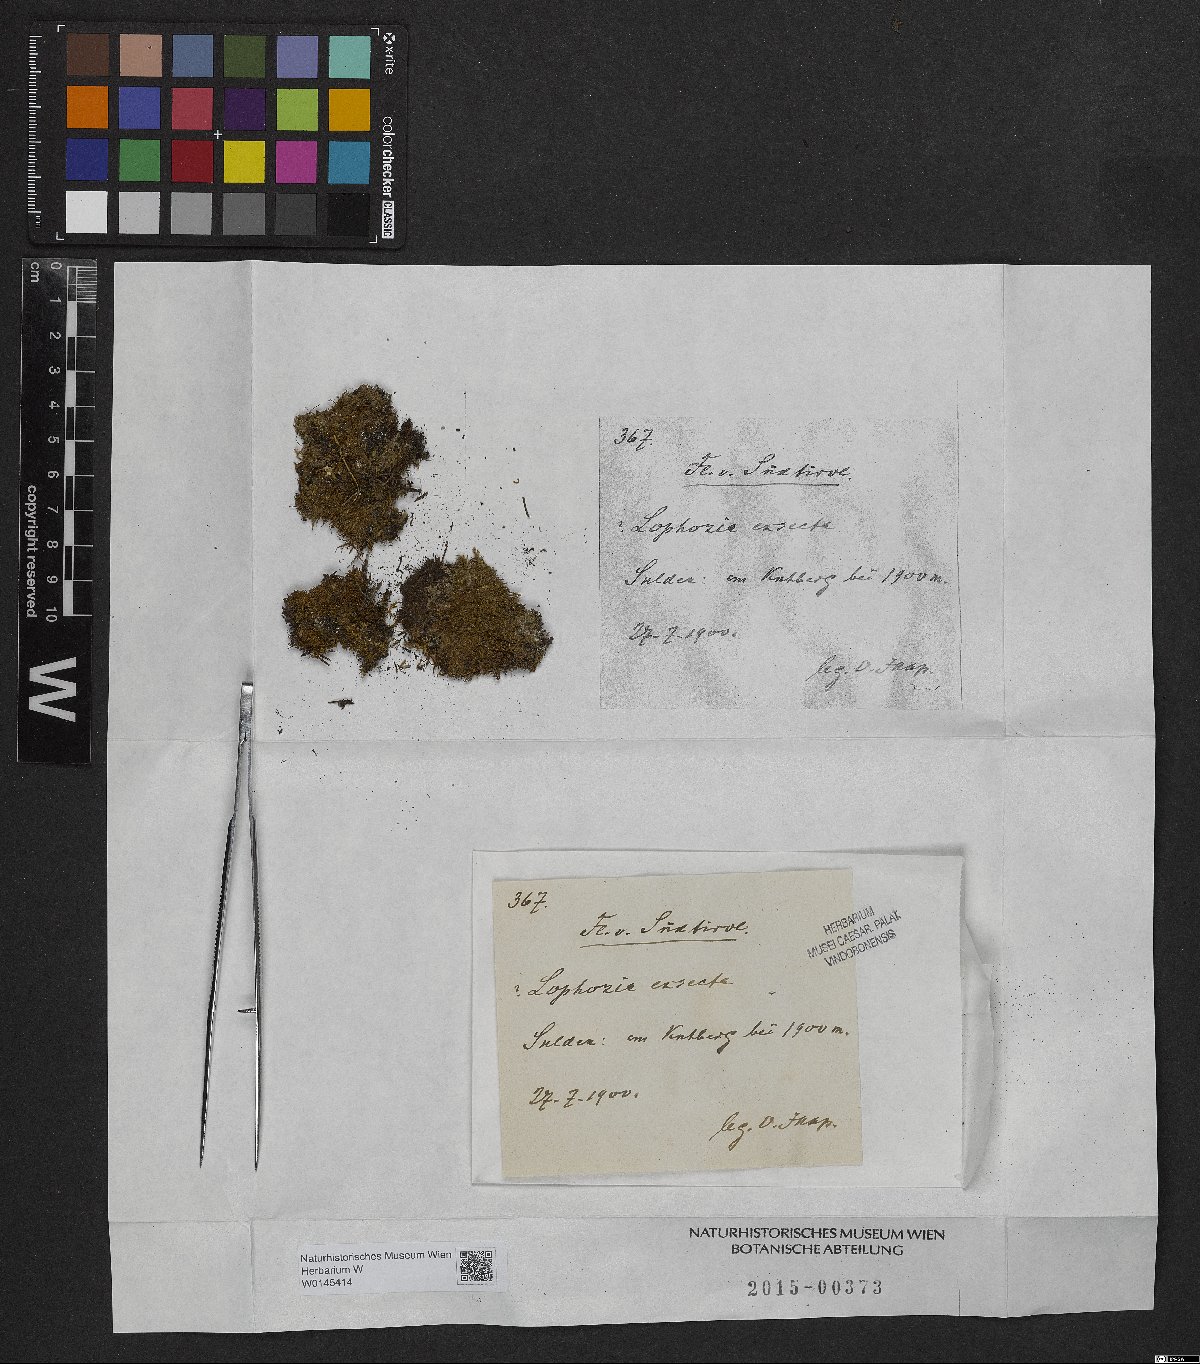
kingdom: Plantae
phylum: Marchantiophyta
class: Jungermanniopsida
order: Jungermanniales
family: Lophoziaceae
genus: Tritomaria
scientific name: Tritomaria exsecta
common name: Cut notchwort
